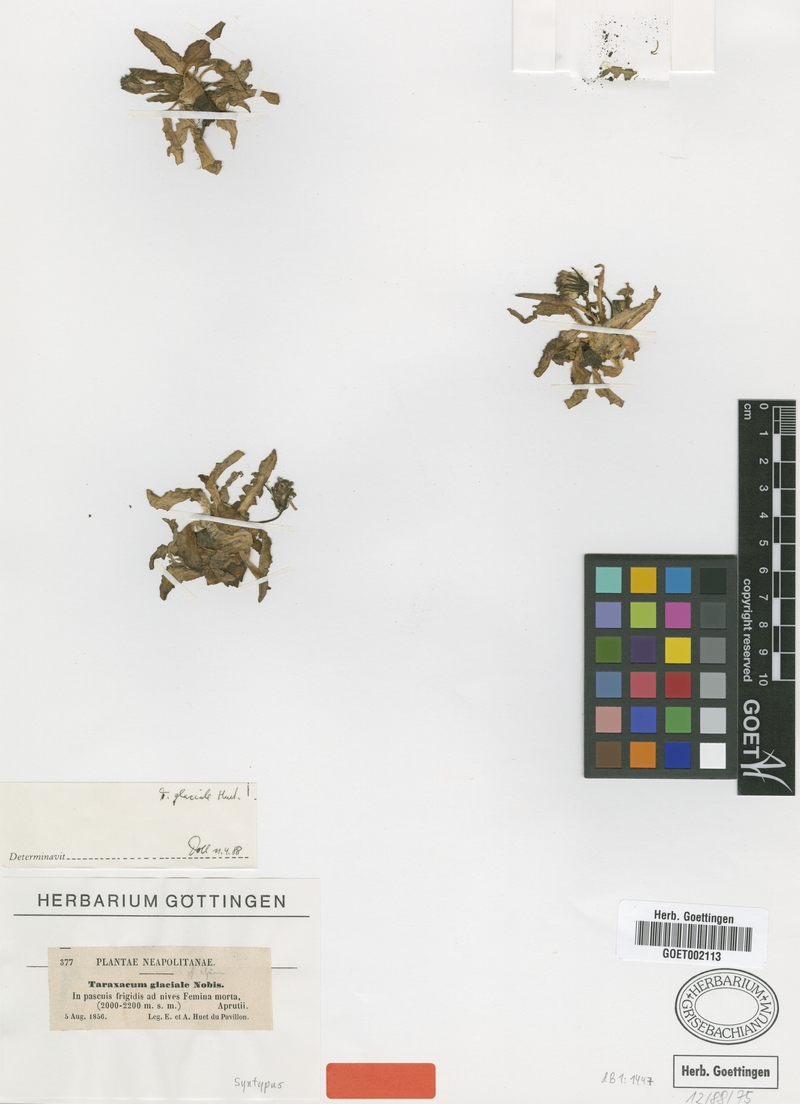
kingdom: Plantae
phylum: Tracheophyta
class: Magnoliopsida
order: Asterales
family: Asteraceae
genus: Taraxacum
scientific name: Taraxacum glaciale
